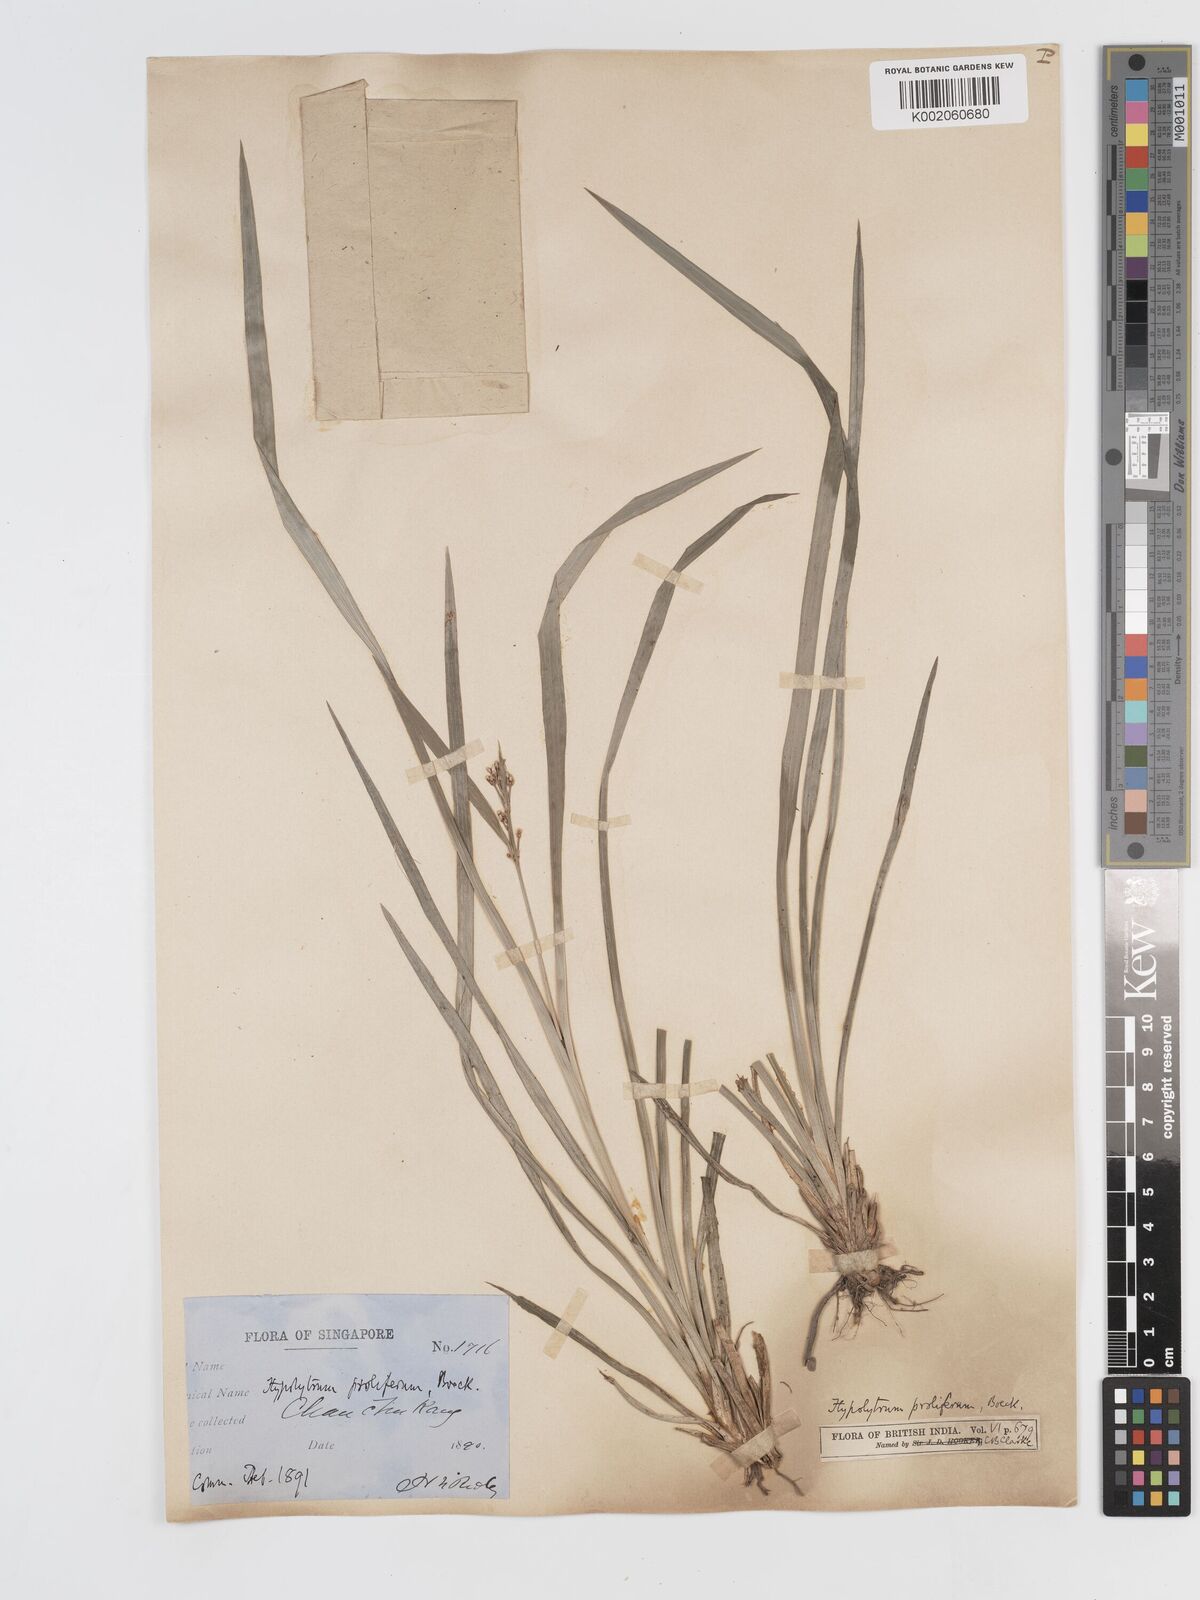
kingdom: Plantae
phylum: Tracheophyta
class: Liliopsida
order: Poales
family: Cyperaceae
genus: Hypolytrum
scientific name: Hypolytrum nemorum
